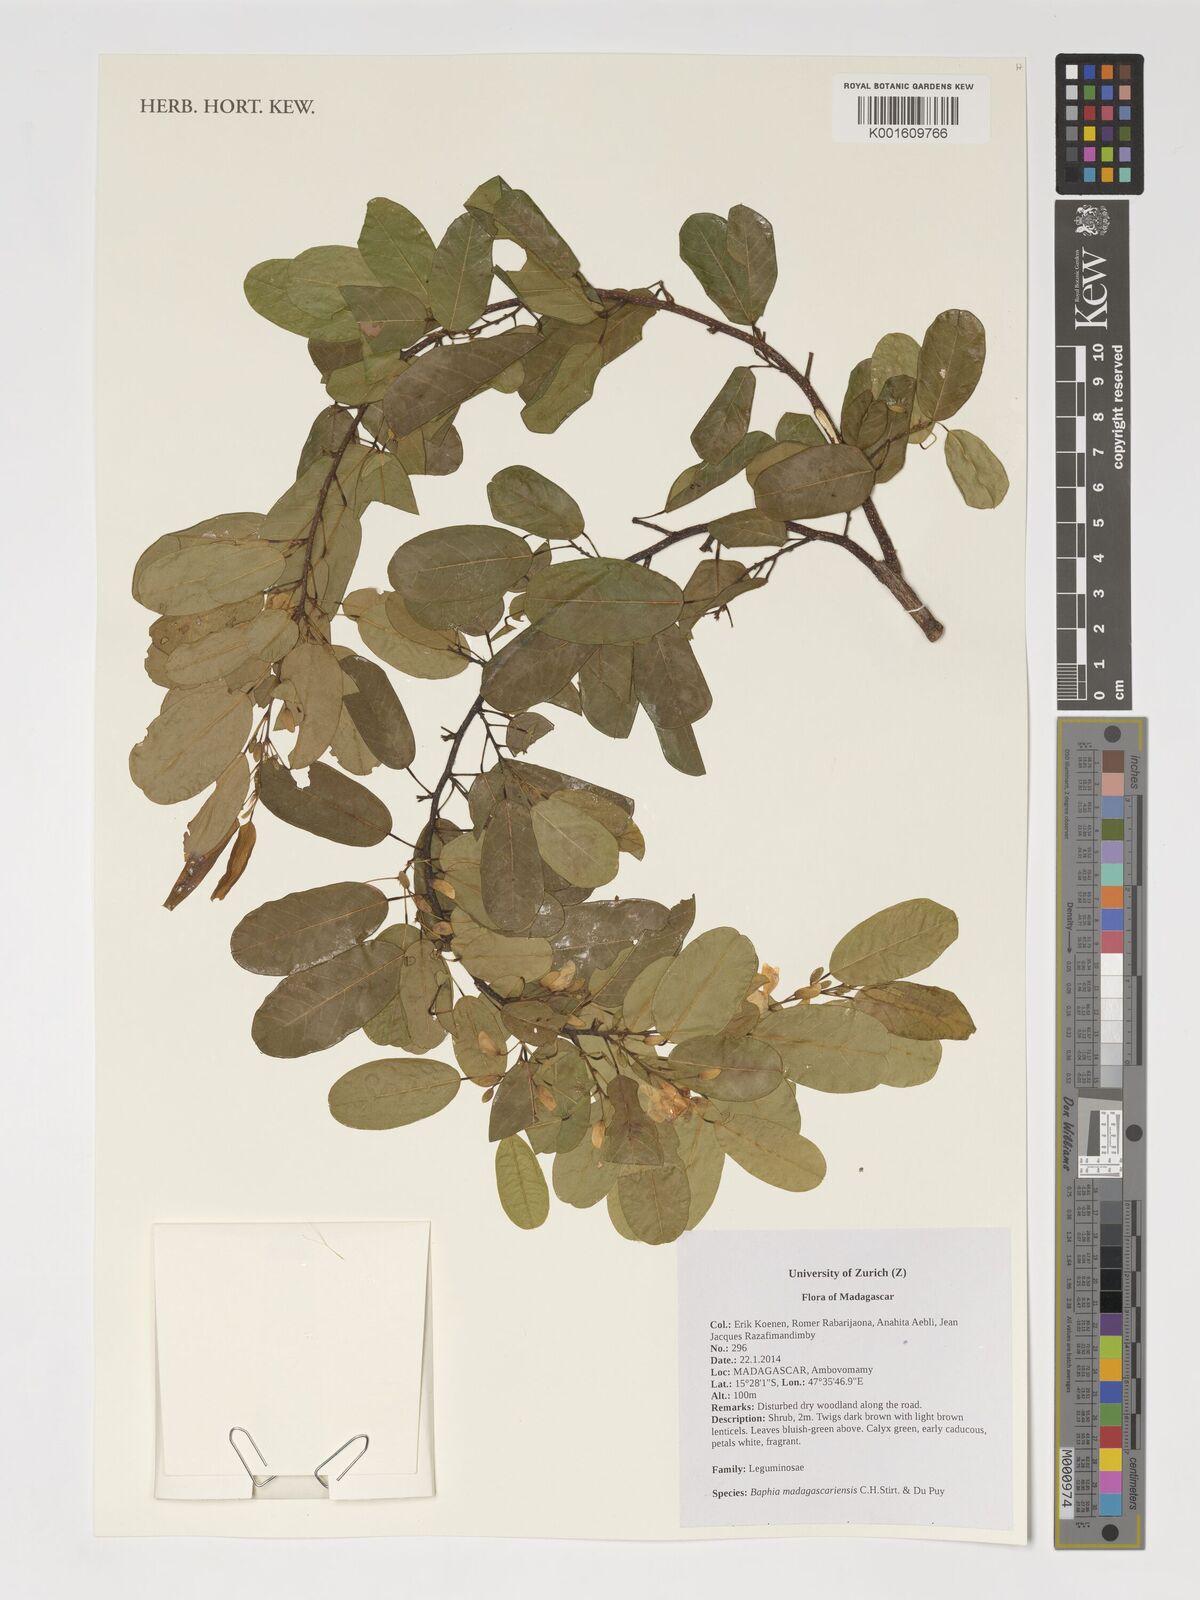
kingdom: Plantae
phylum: Tracheophyta
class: Magnoliopsida
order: Fabales
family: Fabaceae
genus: Baphia
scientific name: Baphia madagascariensis
